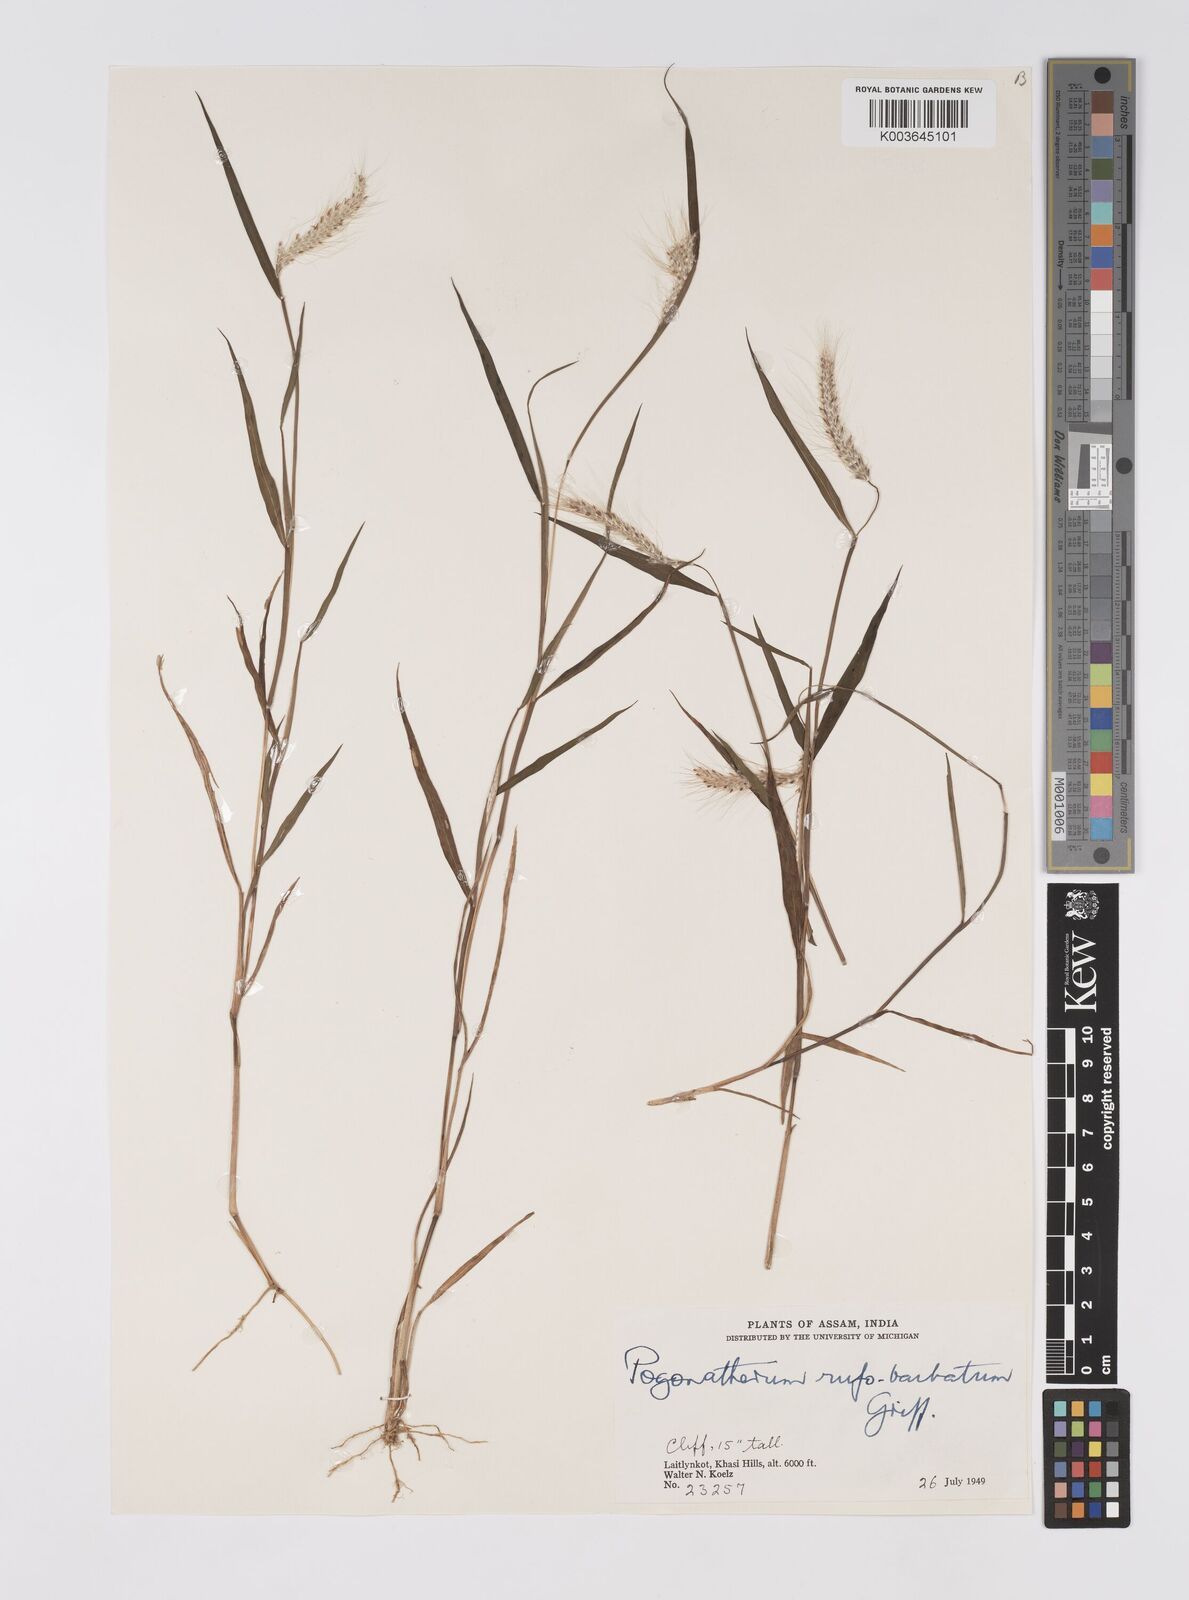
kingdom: Plantae
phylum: Tracheophyta
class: Liliopsida
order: Poales
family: Poaceae
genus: Pogonatherum
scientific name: Pogonatherum rufobarbatum
